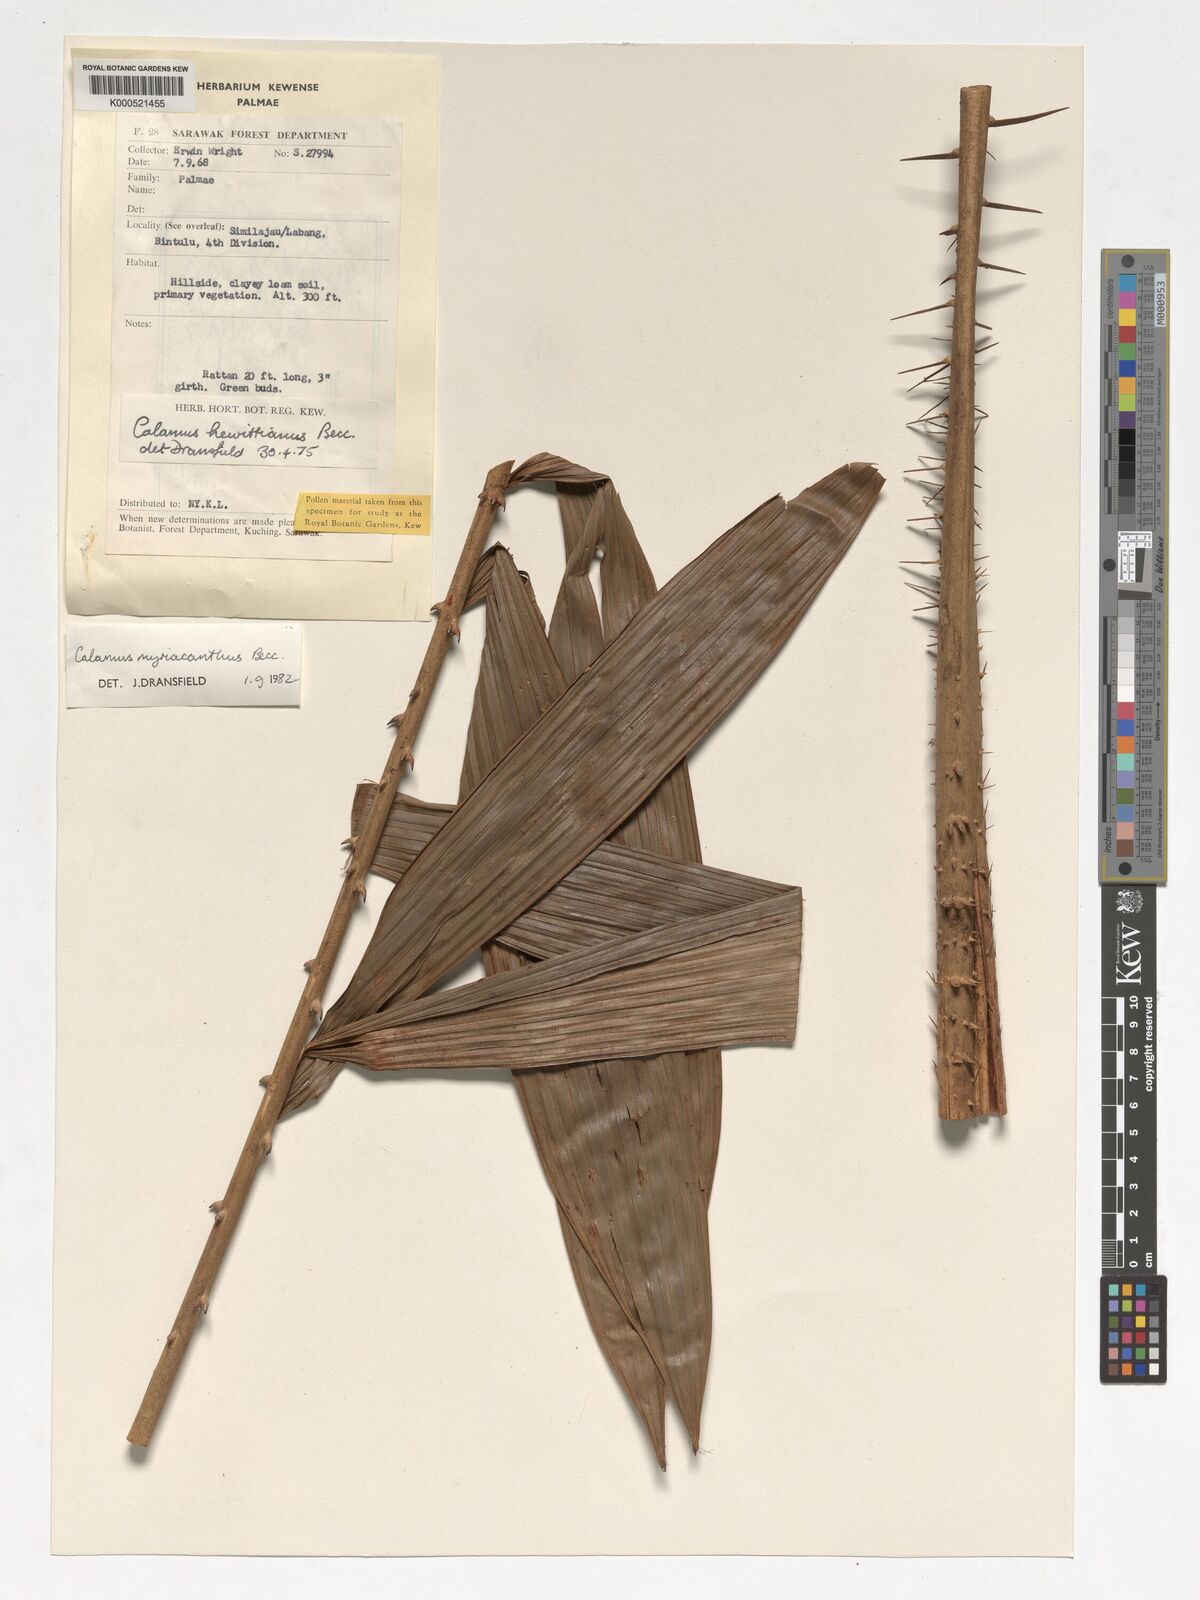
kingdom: Plantae
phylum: Tracheophyta
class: Liliopsida
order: Arecales
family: Arecaceae
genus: Calamus
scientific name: Calamus myriacanthus
